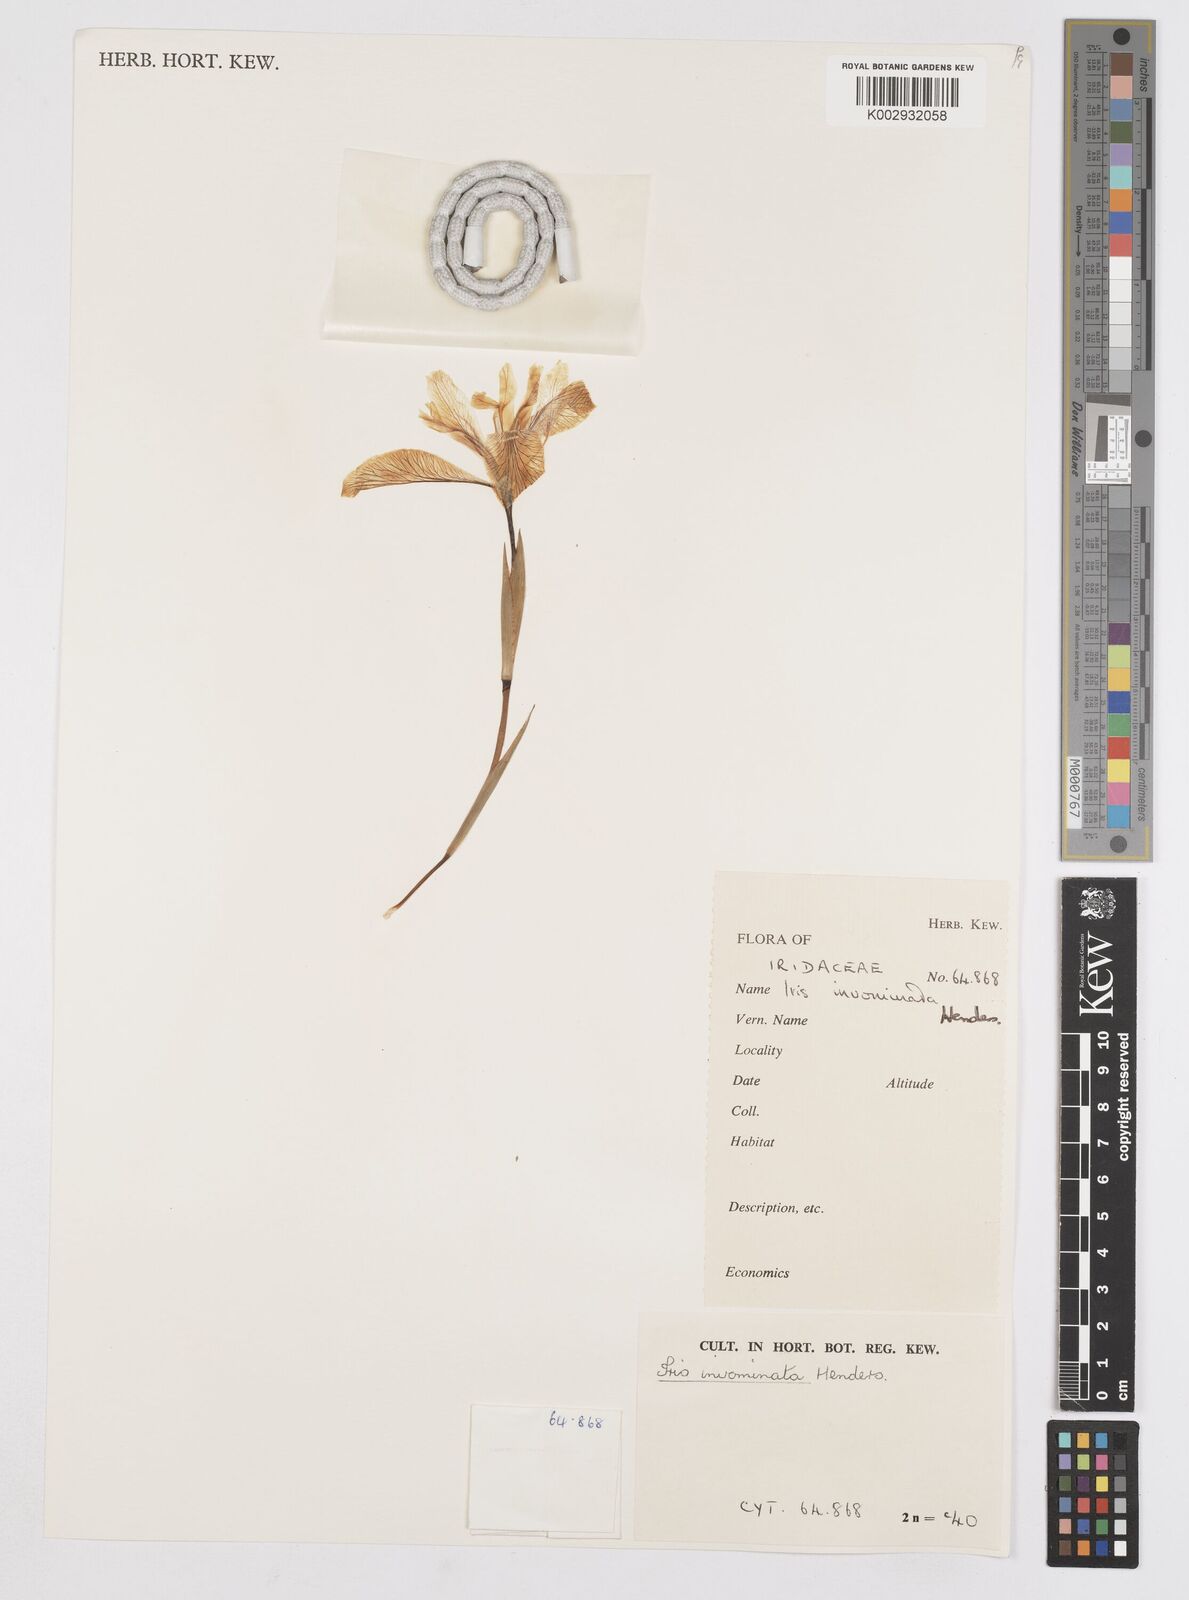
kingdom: Plantae
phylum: Tracheophyta
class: Liliopsida
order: Asparagales
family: Iridaceae
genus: Iris
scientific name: Iris innominata
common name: Del norte county iris
